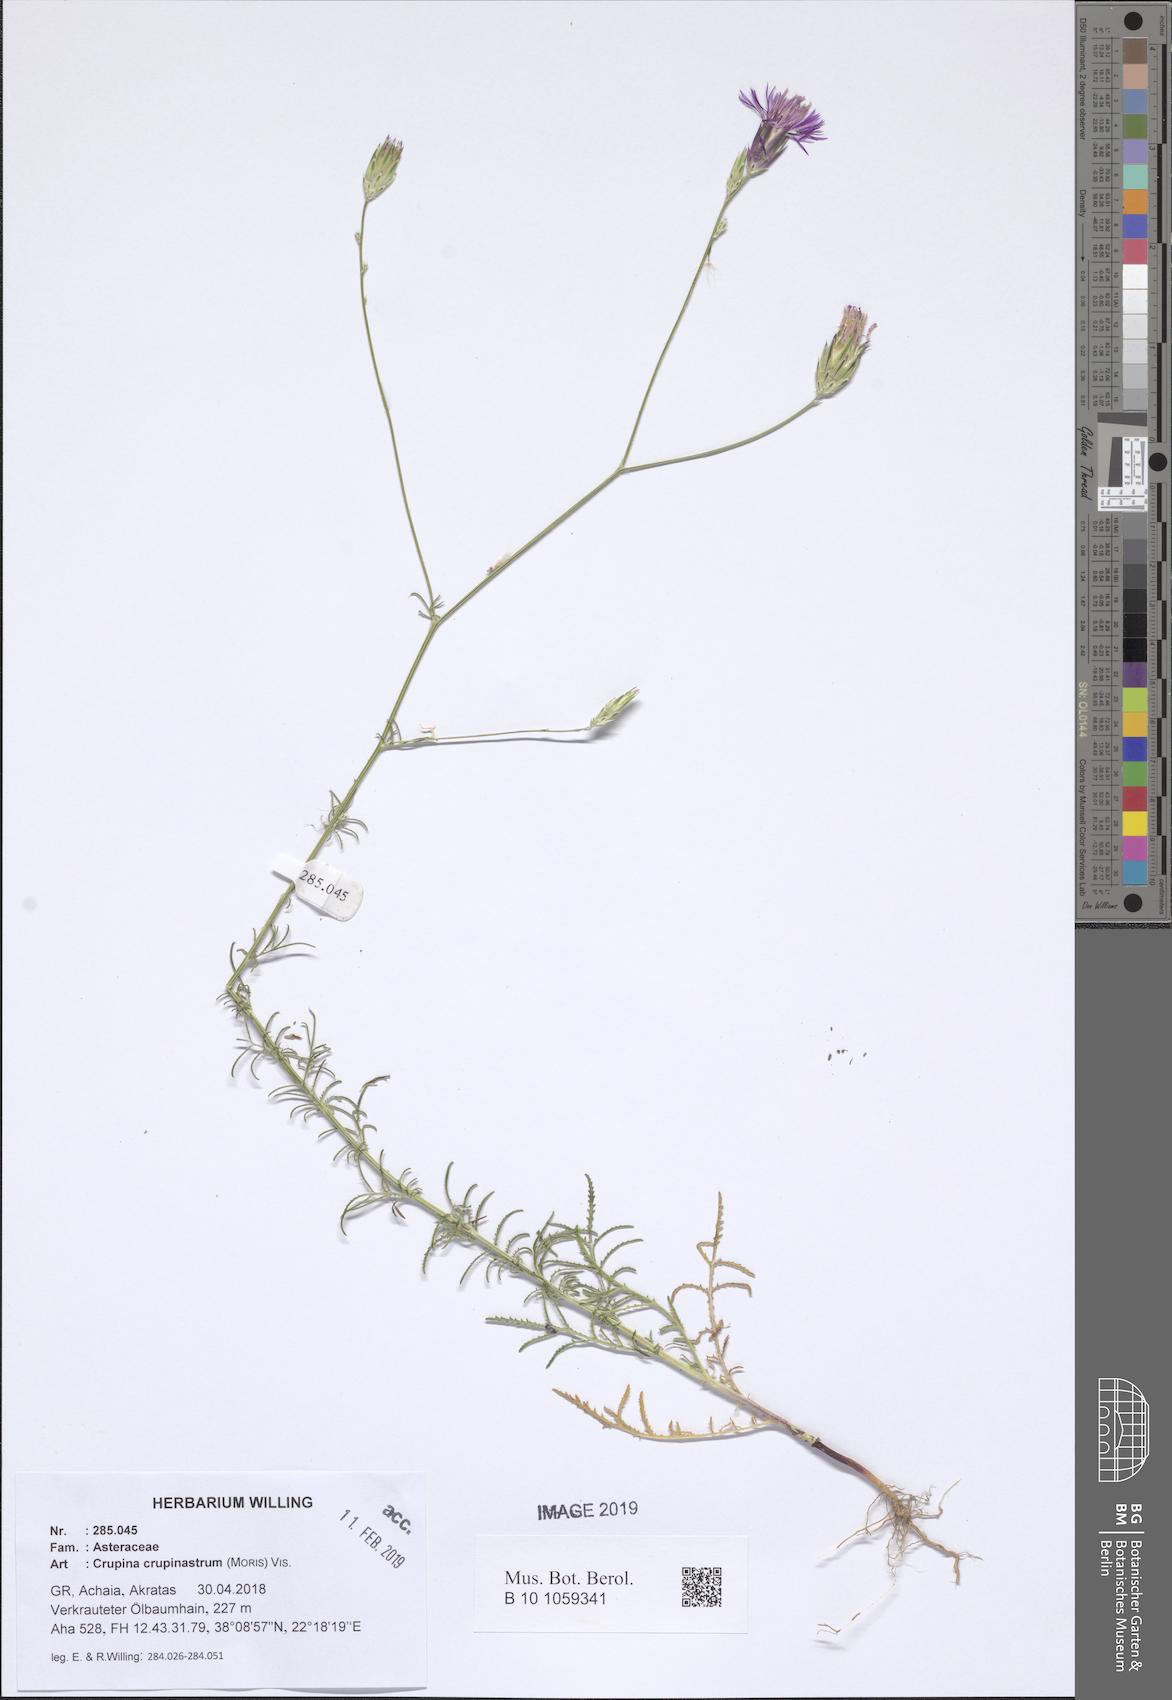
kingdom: Plantae
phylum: Tracheophyta
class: Magnoliopsida
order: Asterales
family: Asteraceae
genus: Crupina
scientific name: Crupina crupinastrum
